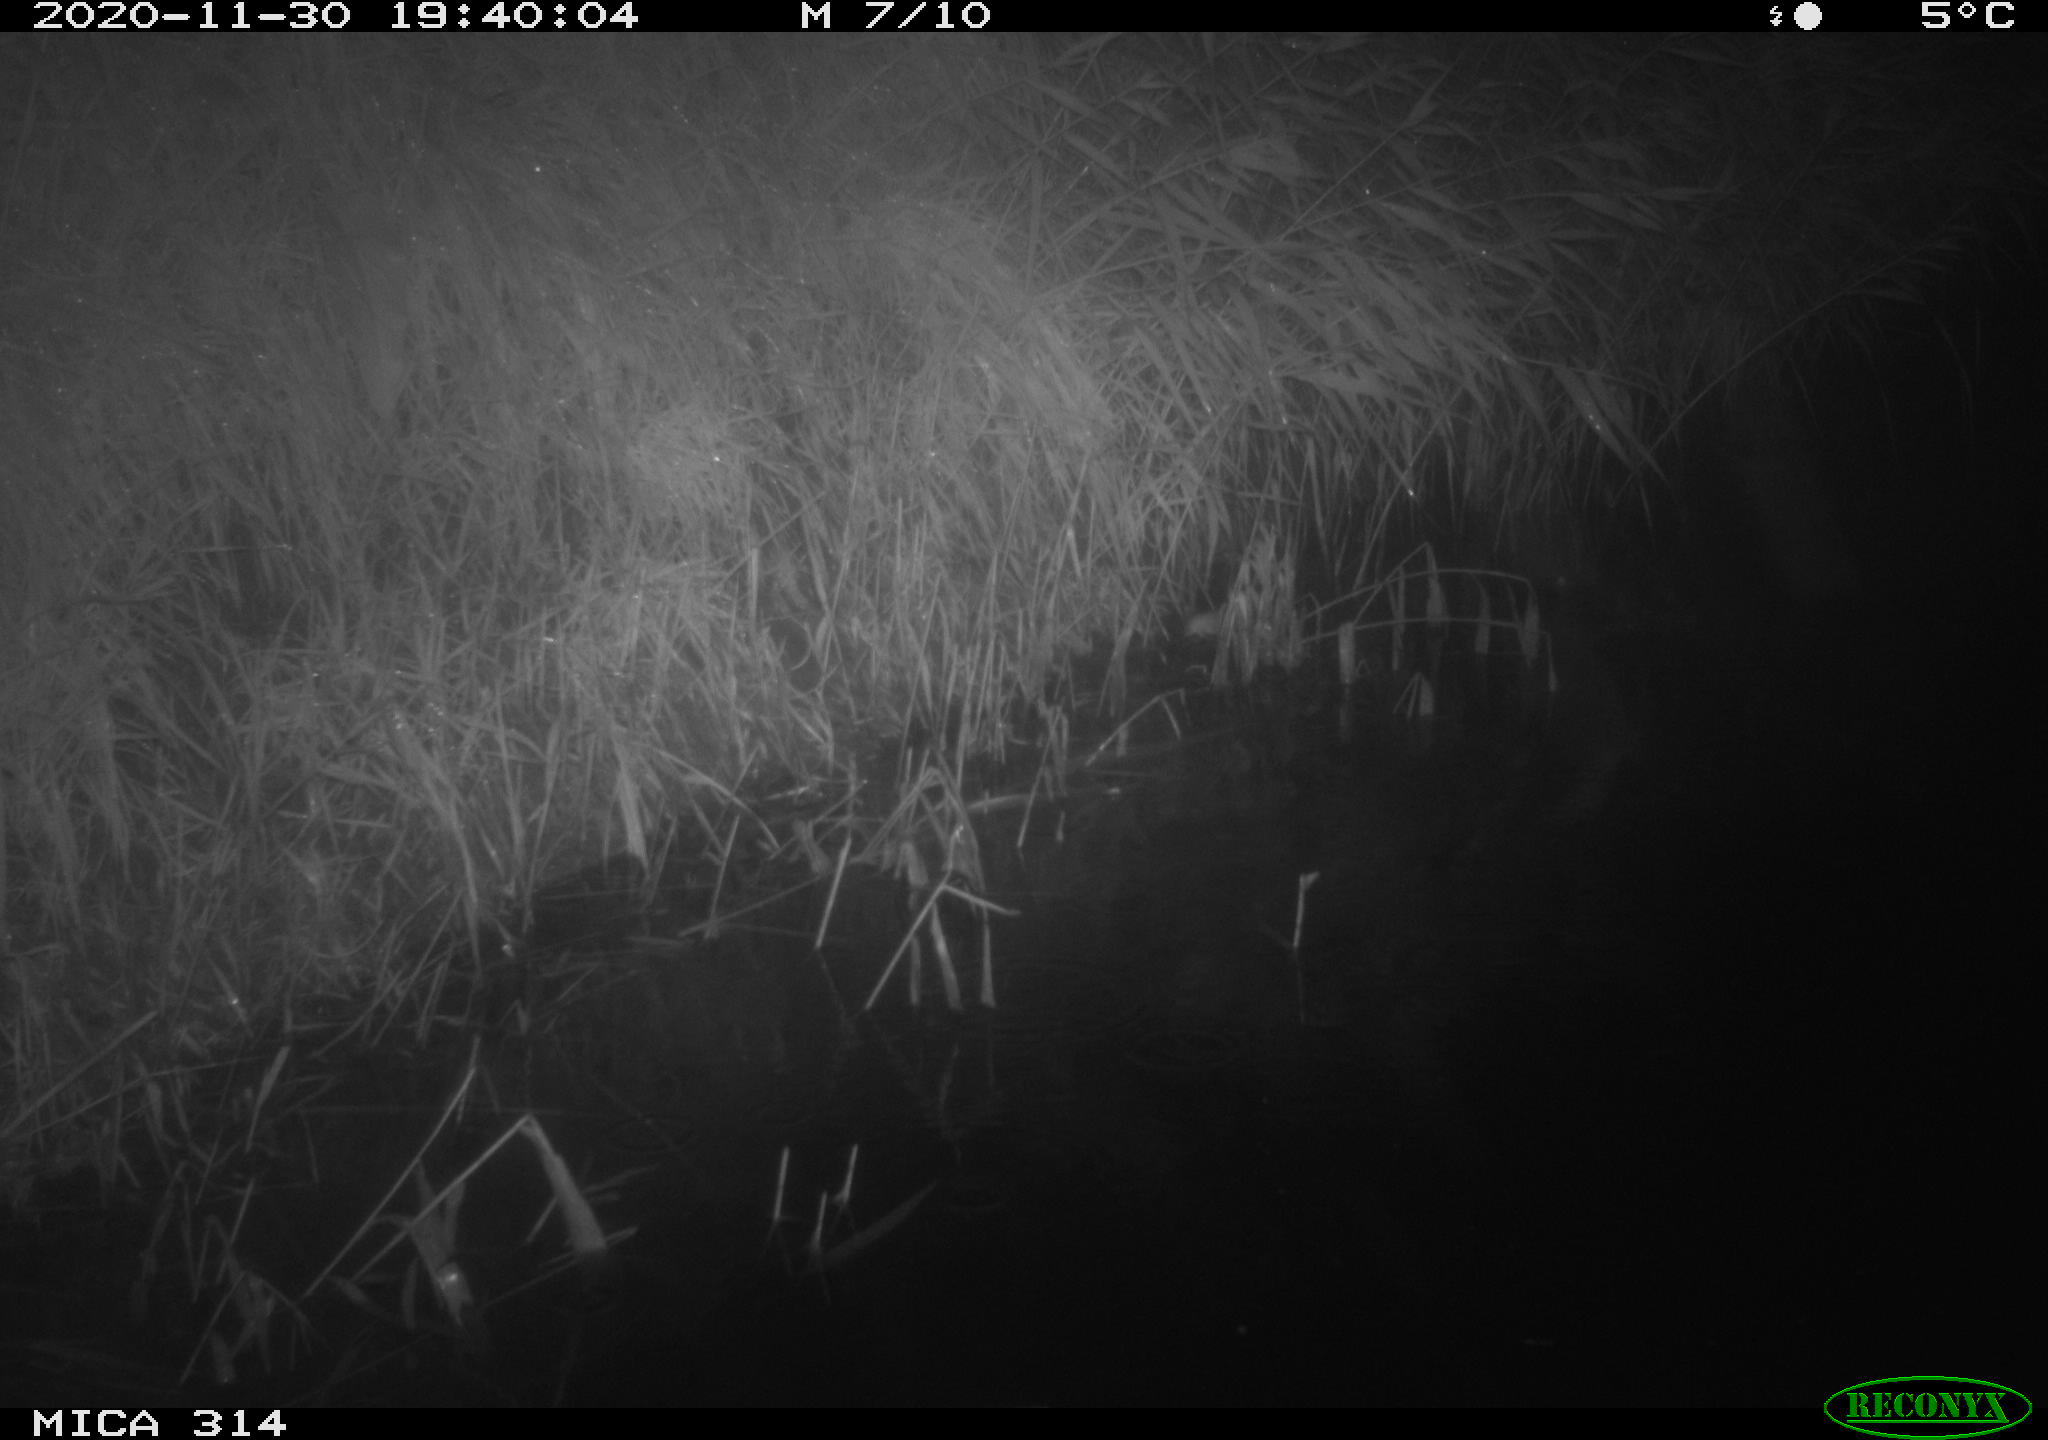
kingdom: Animalia
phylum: Chordata
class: Mammalia
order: Rodentia
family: Muridae
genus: Rattus
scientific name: Rattus norvegicus
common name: Brown rat
